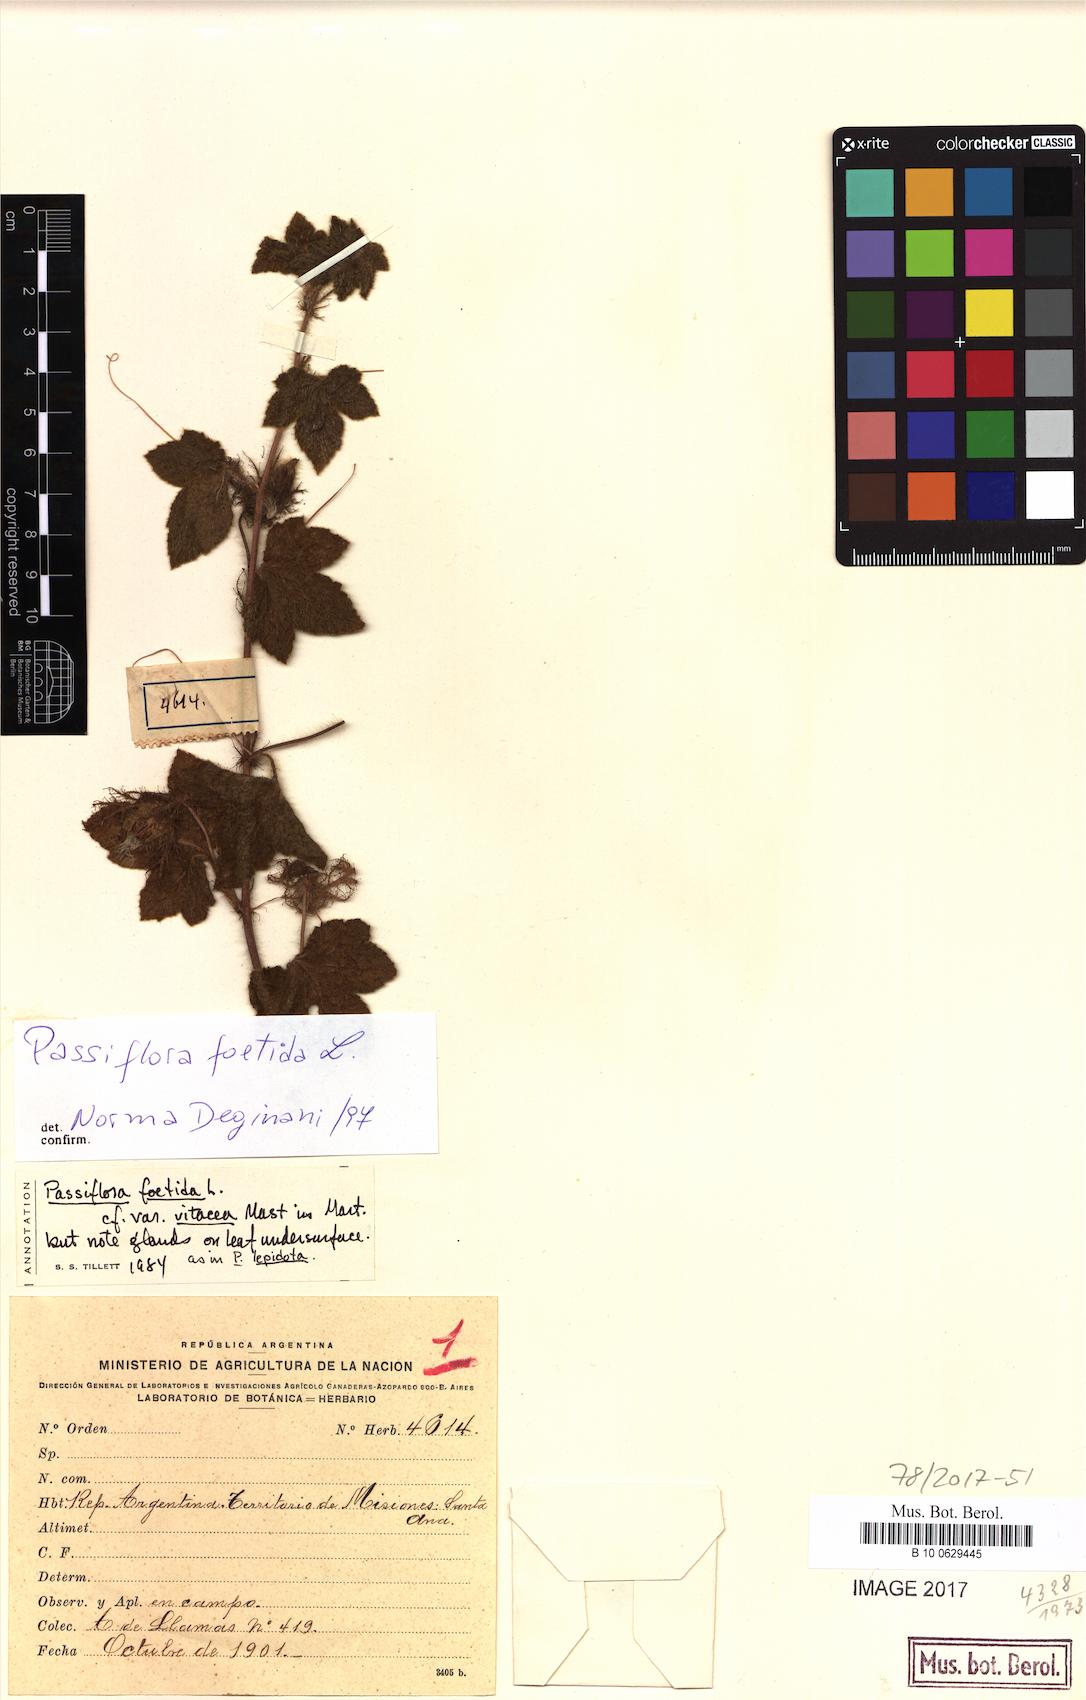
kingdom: Plantae
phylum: Tracheophyta
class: Magnoliopsida
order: Malpighiales
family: Passifloraceae
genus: Passiflora
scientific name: Passiflora foetida
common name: Fetid passionflower
